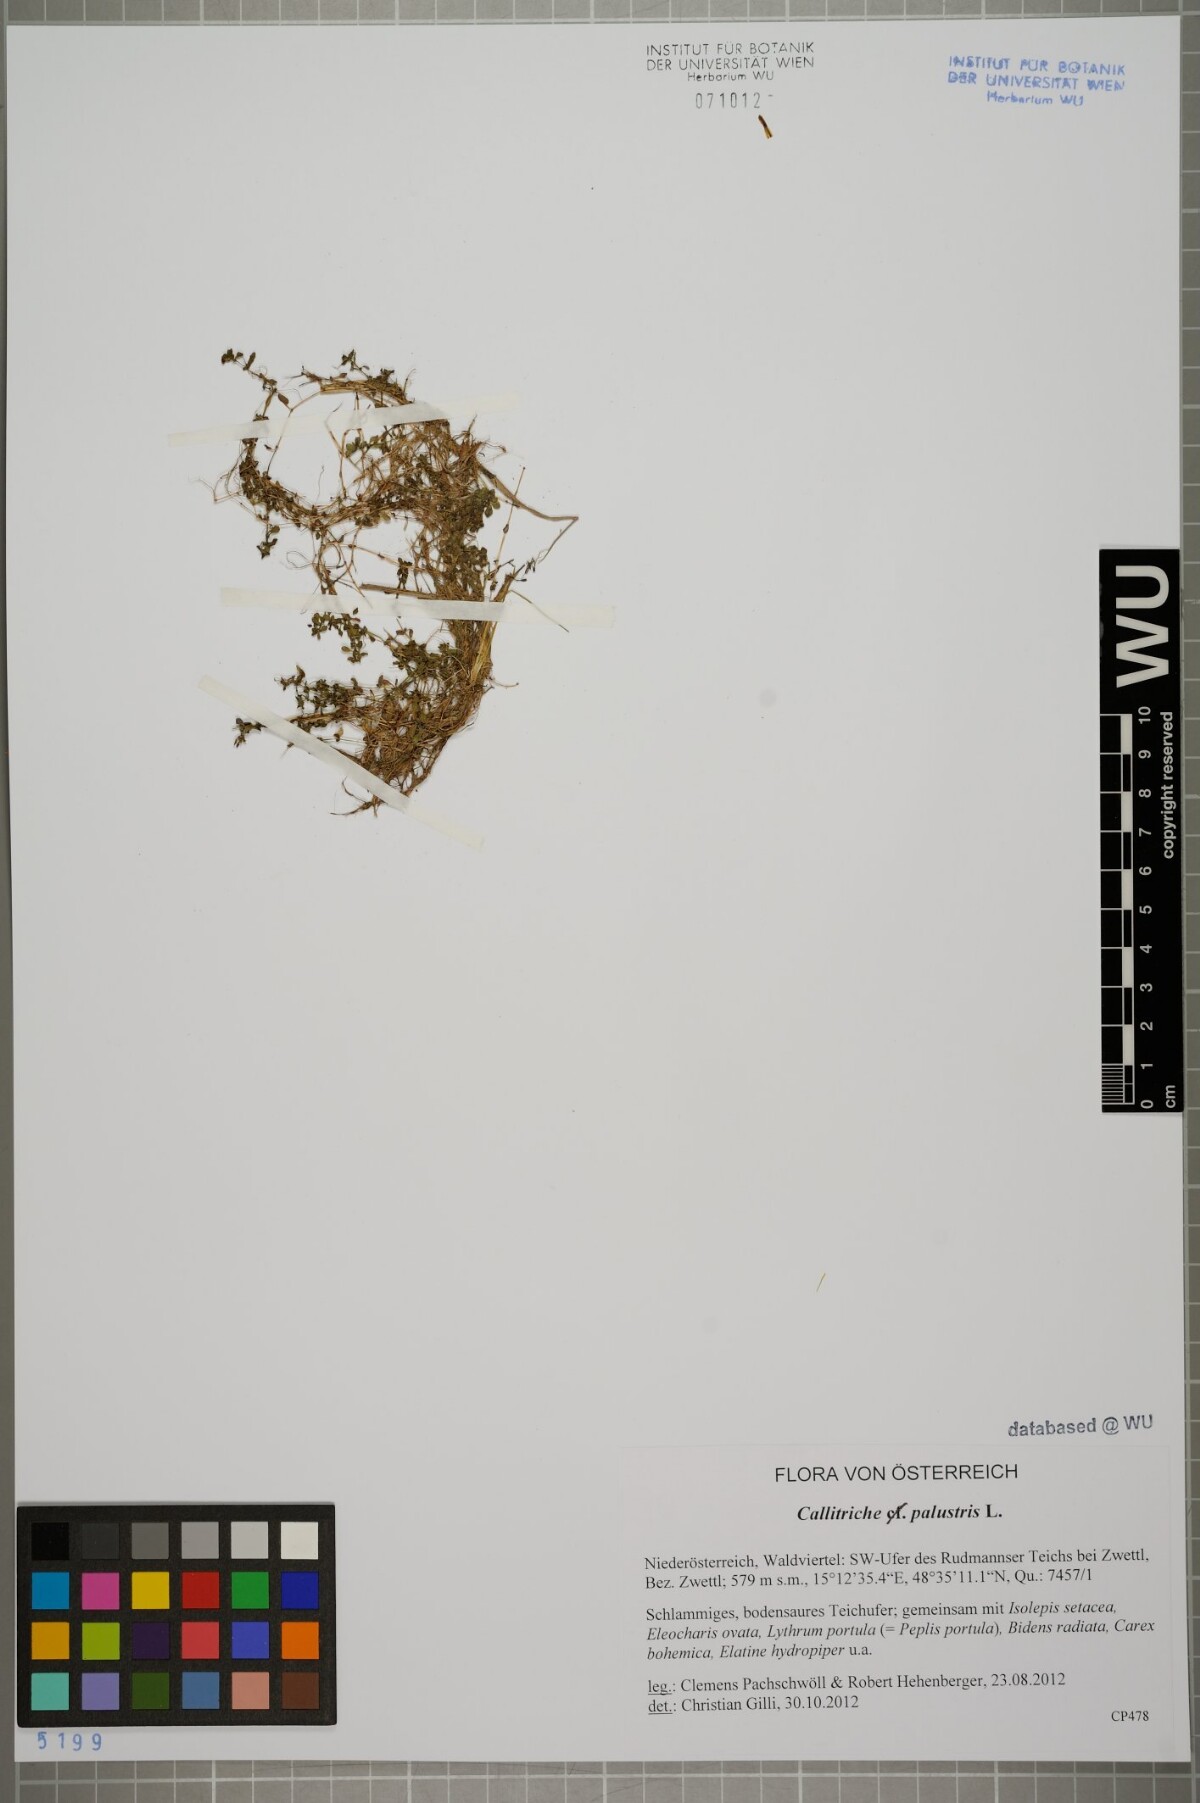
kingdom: Plantae
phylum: Tracheophyta
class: Magnoliopsida
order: Lamiales
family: Plantaginaceae
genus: Callitriche
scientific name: Callitriche palustris
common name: Spring water-starwort
